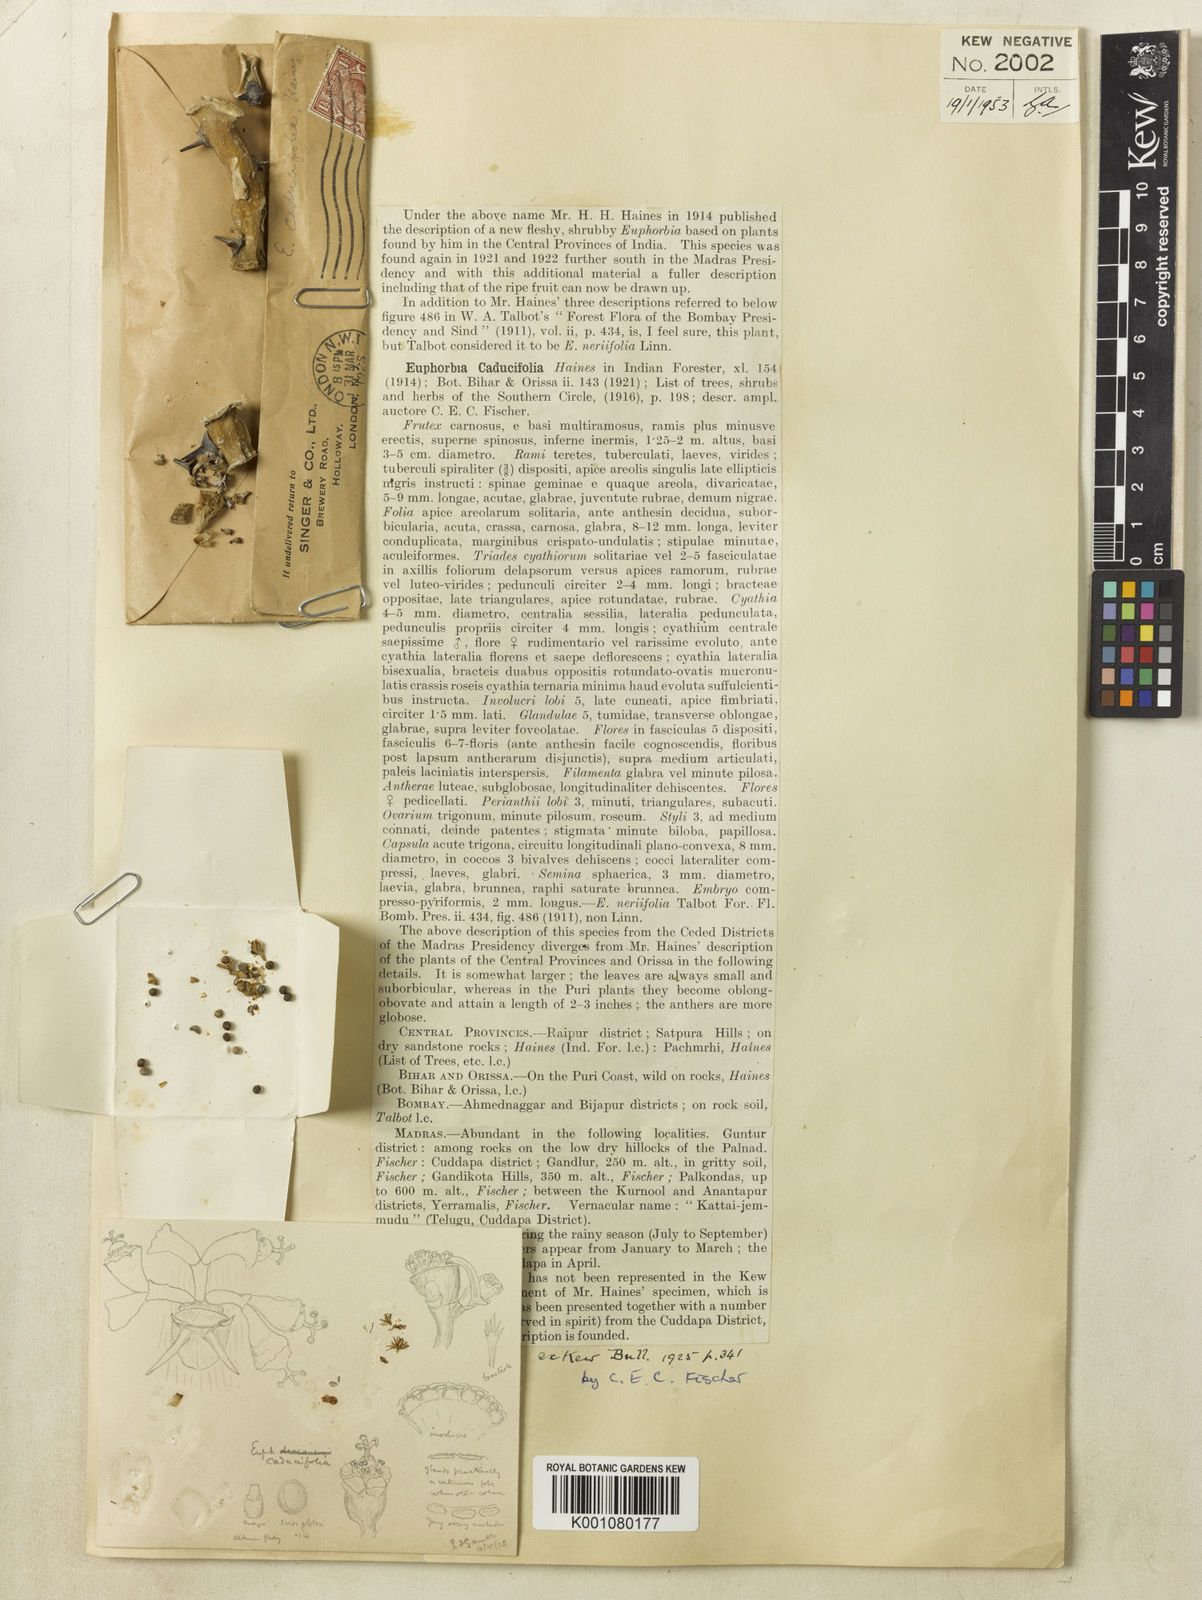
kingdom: Plantae
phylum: Tracheophyta
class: Magnoliopsida
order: Malpighiales
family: Euphorbiaceae
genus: Euphorbia
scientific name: Euphorbia caducifolia
